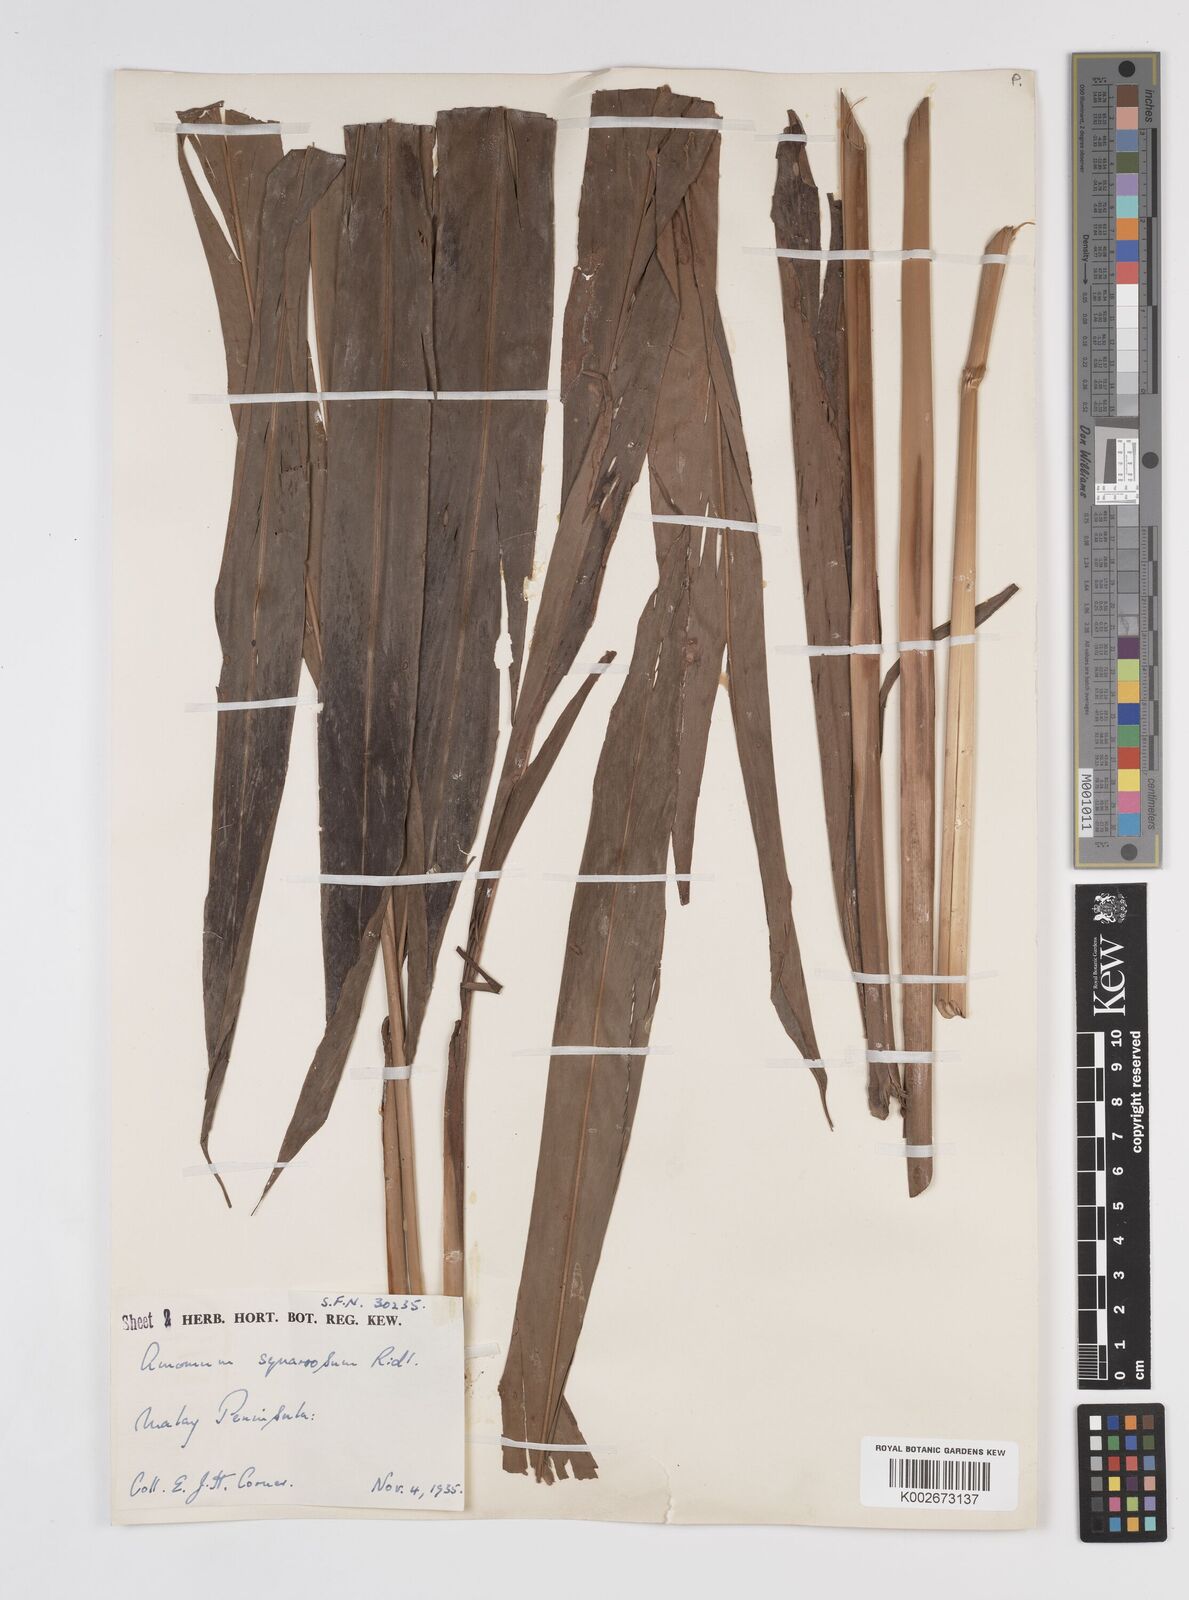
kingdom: Plantae
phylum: Tracheophyta
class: Liliopsida
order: Zingiberales
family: Zingiberaceae
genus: Conamomum
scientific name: Conamomum squarrosum
